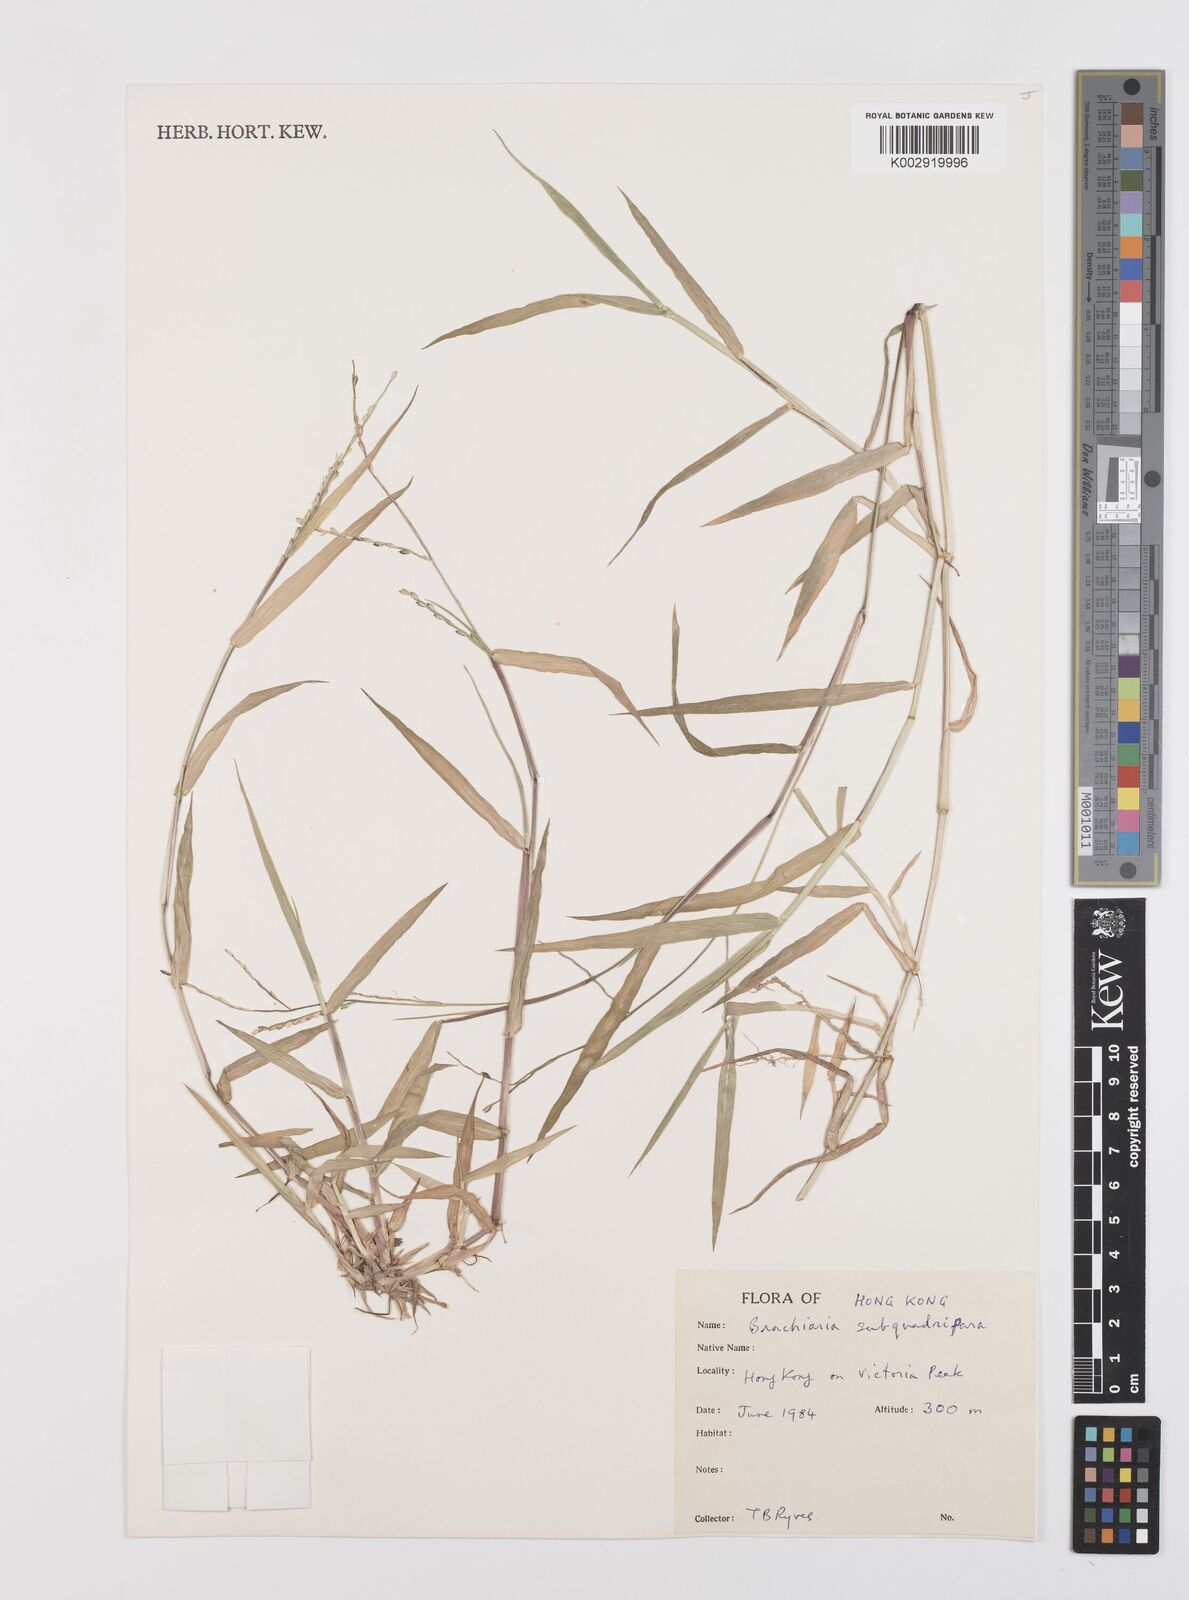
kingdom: Plantae
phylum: Tracheophyta
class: Liliopsida
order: Poales
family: Poaceae
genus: Urochloa
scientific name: Urochloa subquadripara
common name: Armgrass millet
